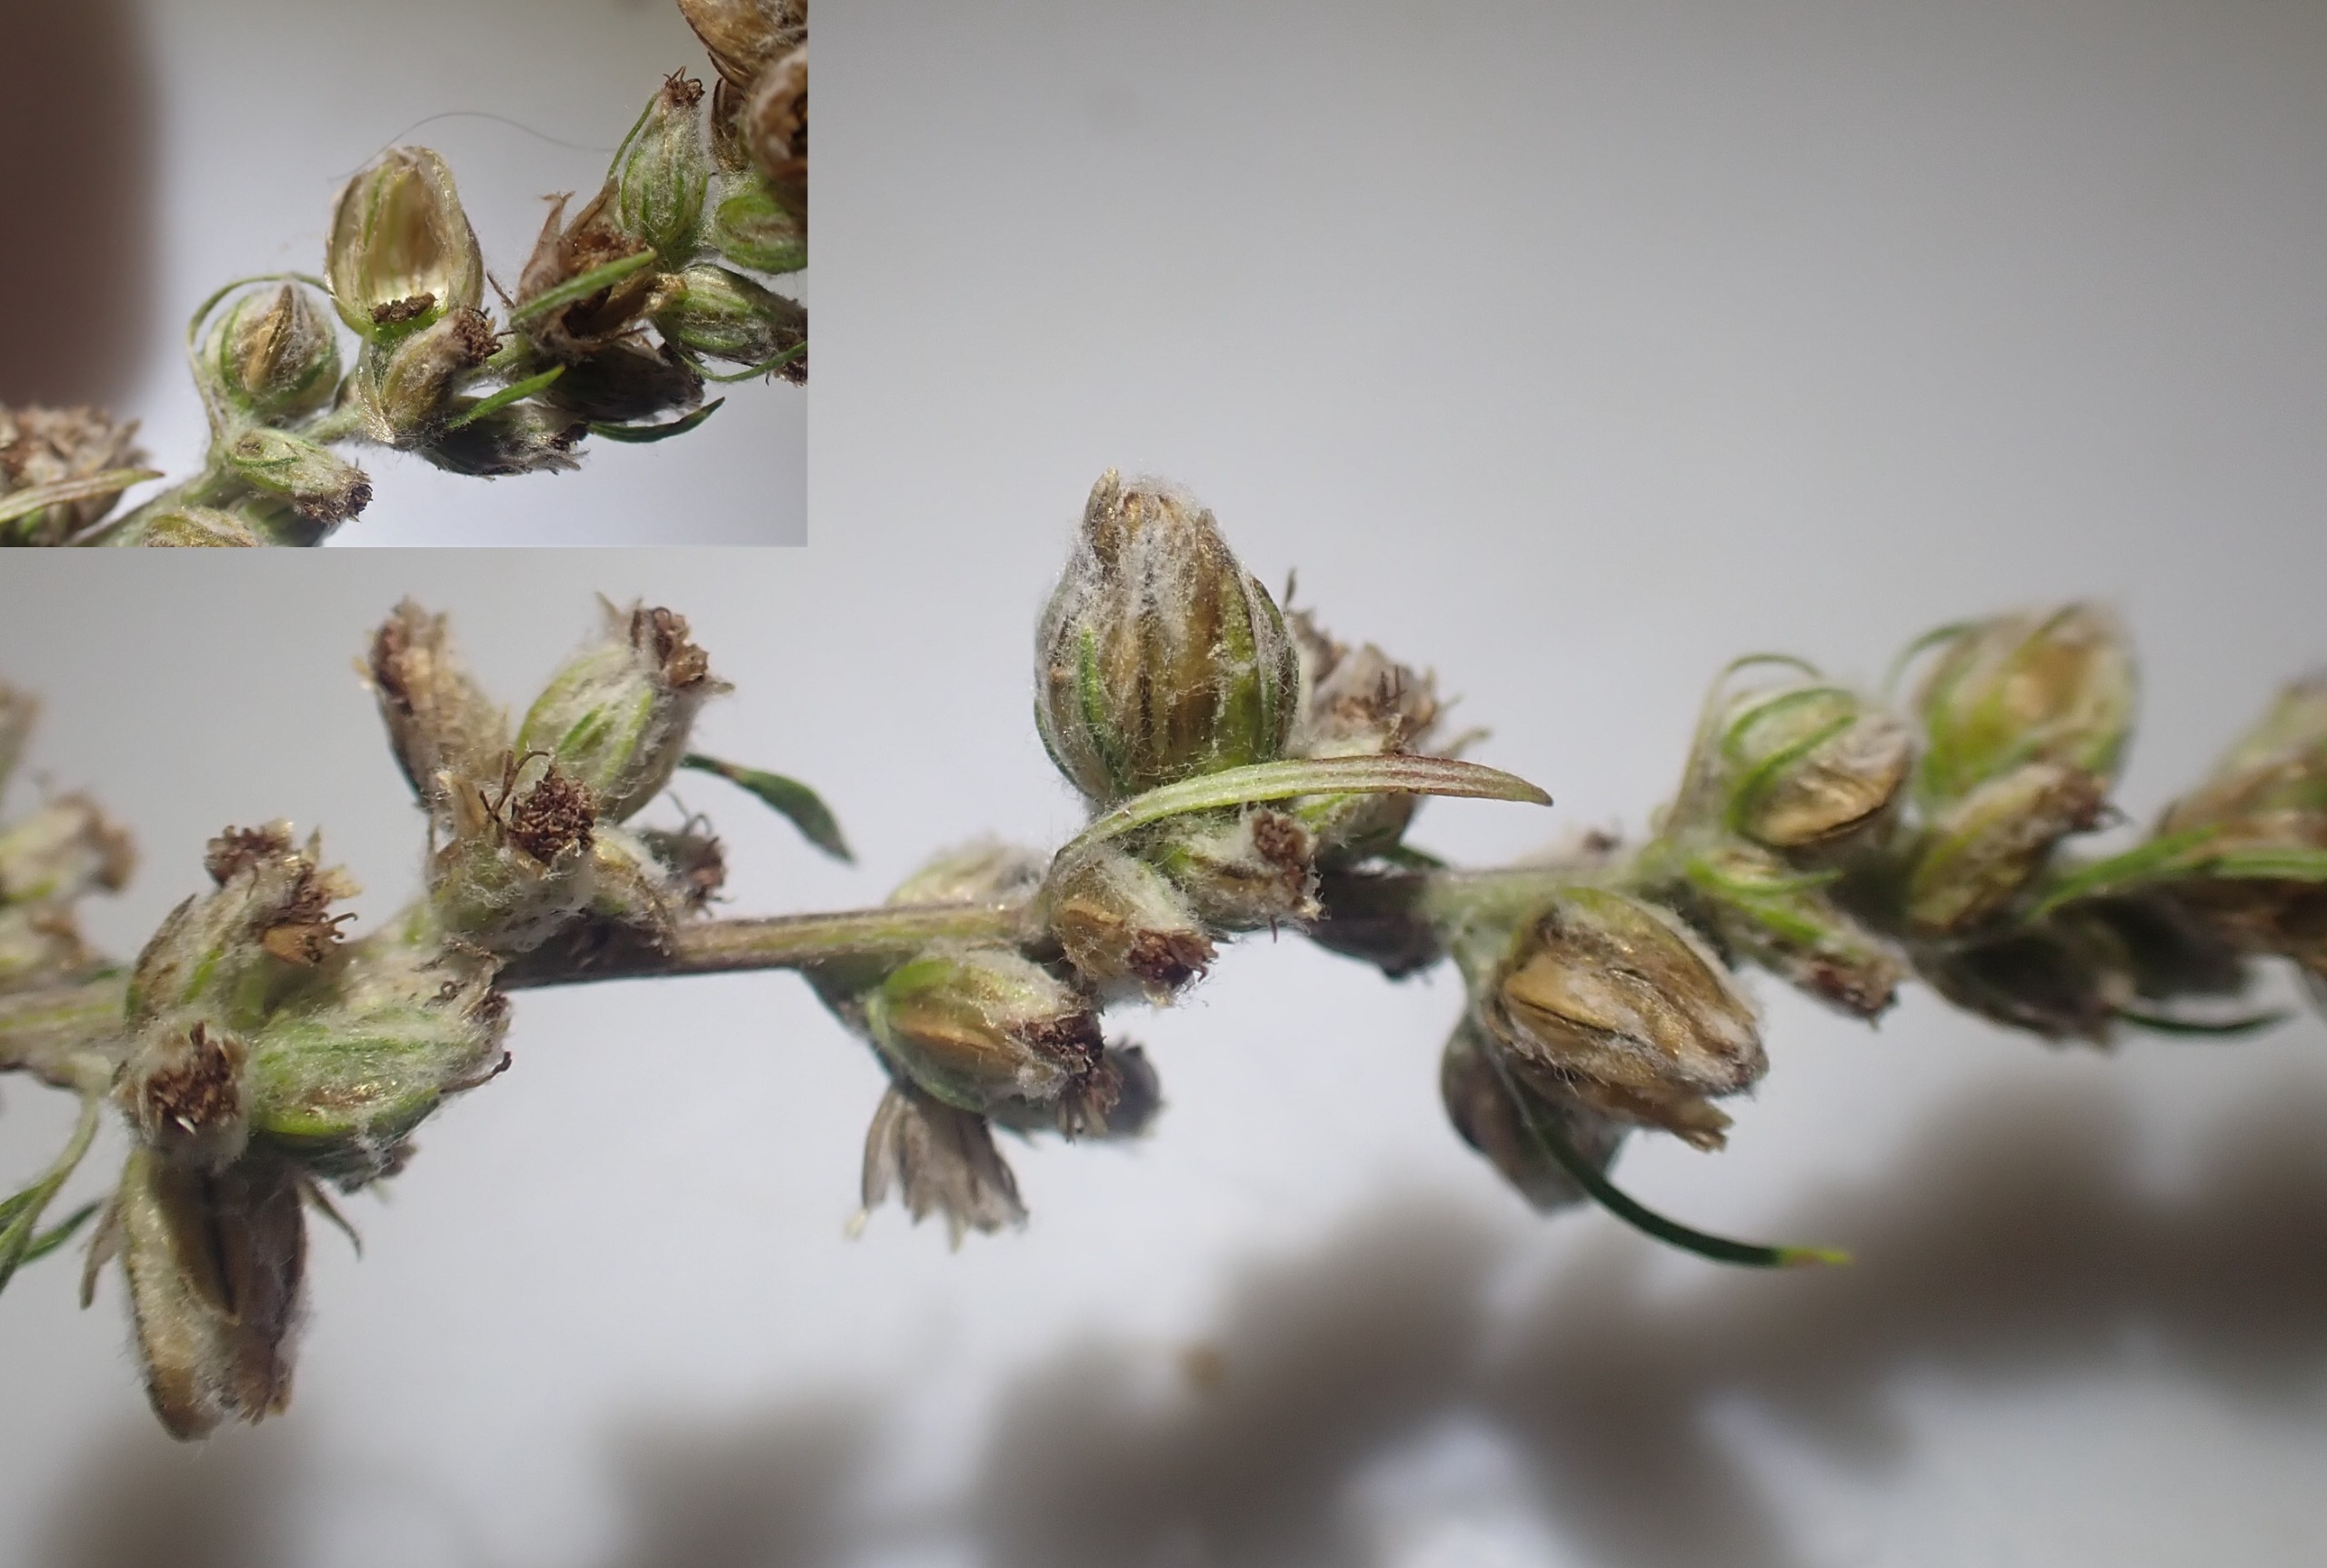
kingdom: Animalia
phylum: Arthropoda
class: Insecta
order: Diptera
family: Cecidomyiidae
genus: Ametrodiplosis
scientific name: Ametrodiplosis rudimentalis
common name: Bynkekurvgalmyg
